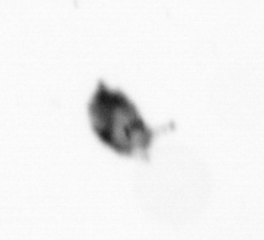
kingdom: Animalia
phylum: Arthropoda
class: Copepoda
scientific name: Copepoda
